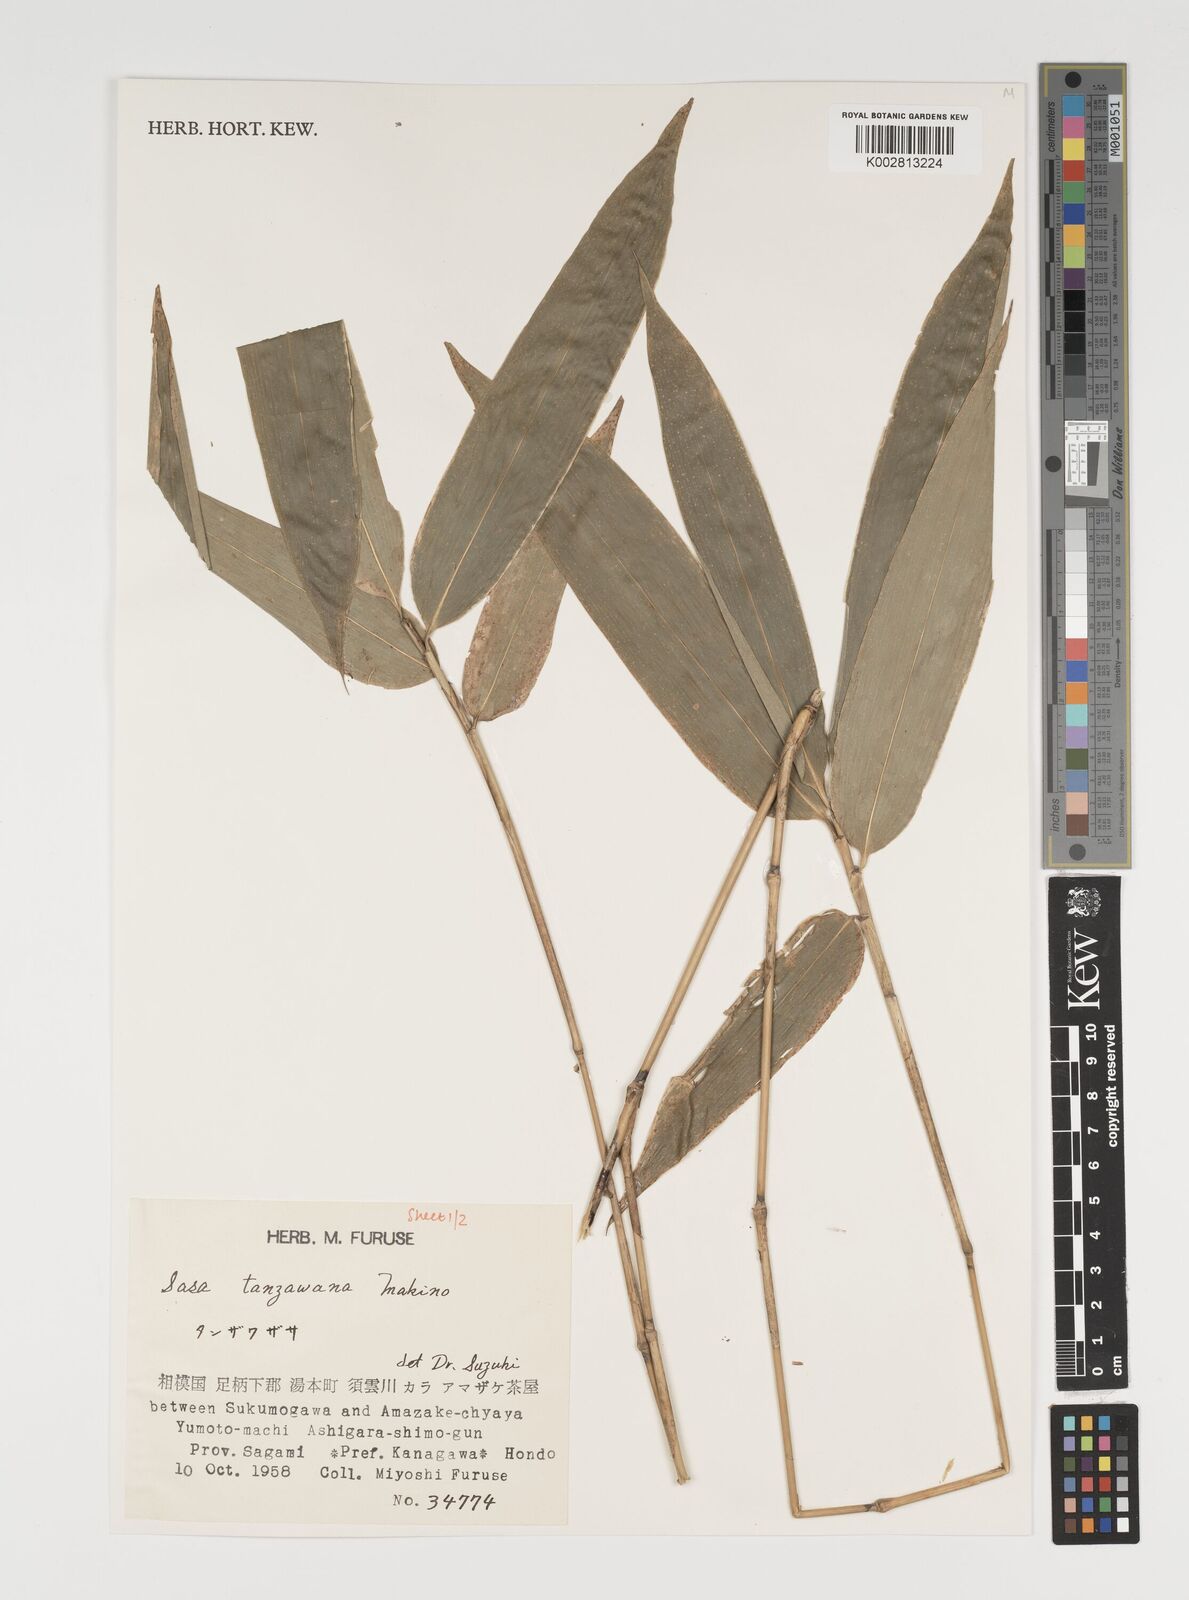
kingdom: Plantae
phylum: Tracheophyta
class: Liliopsida
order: Poales
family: Poaceae
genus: Sasa
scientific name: Sasa takizawana
